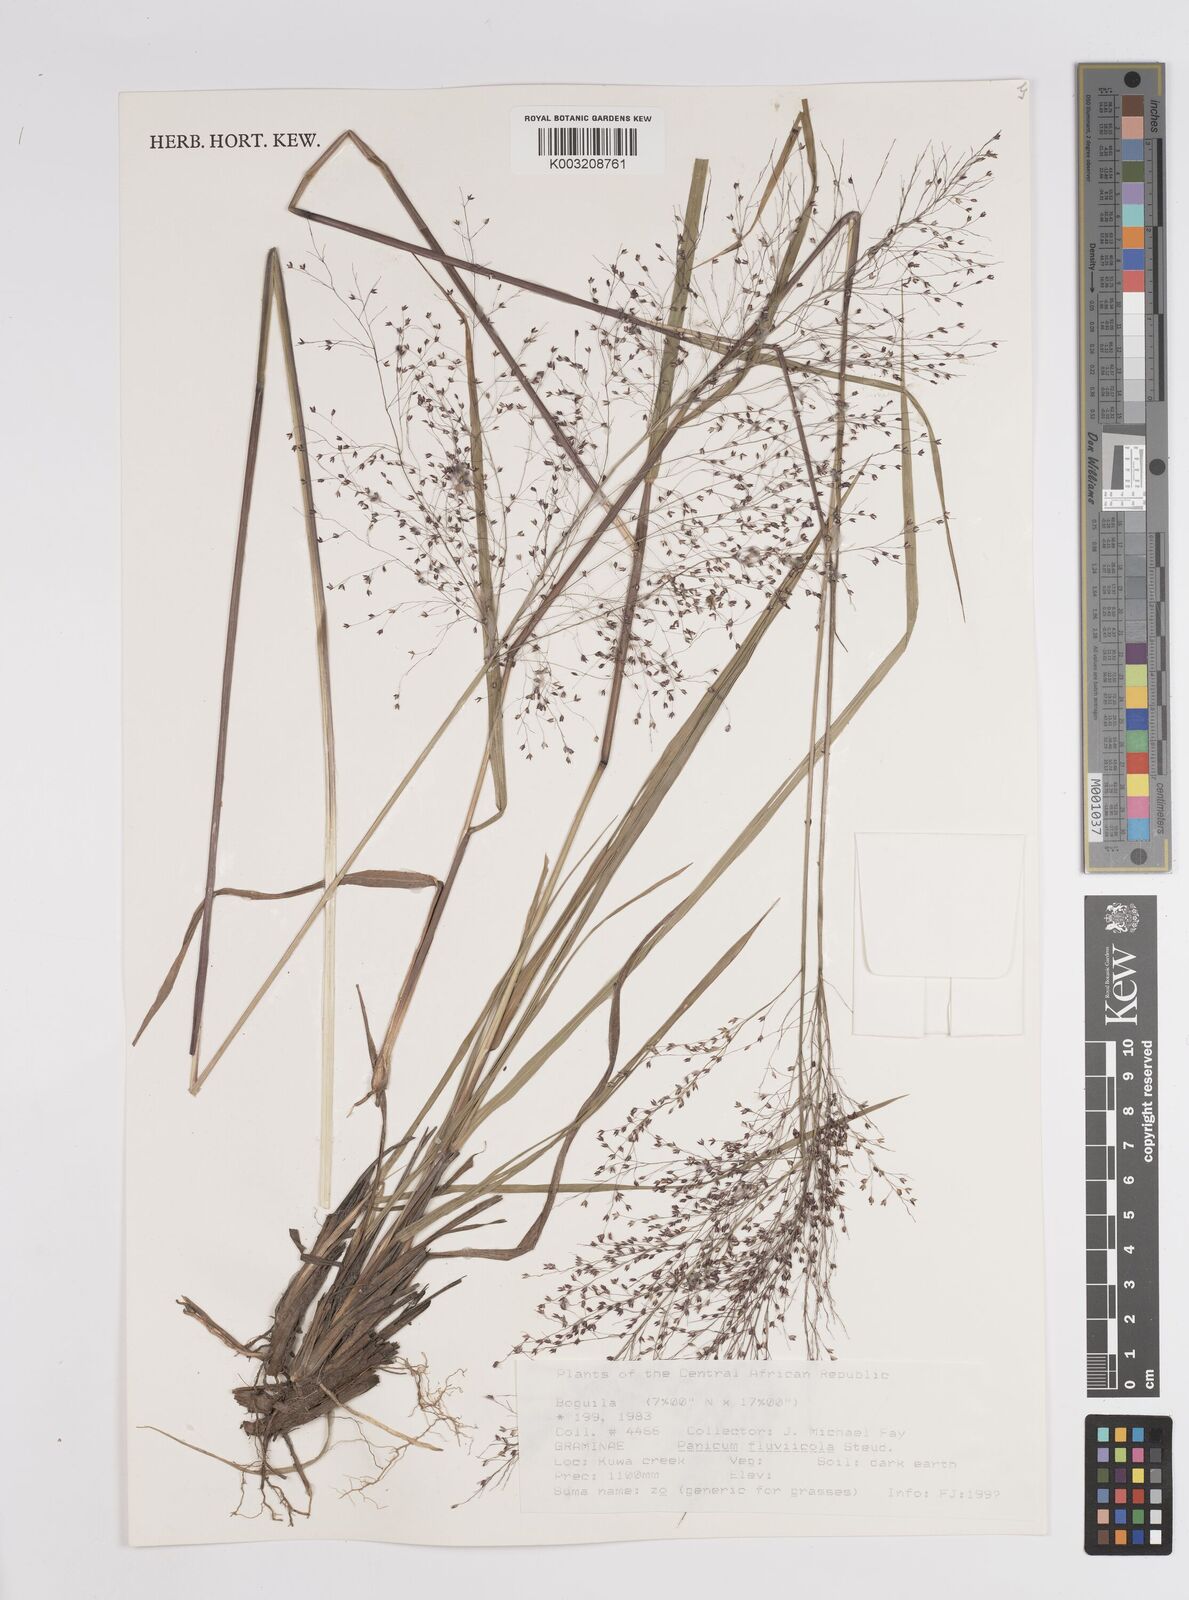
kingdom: Plantae
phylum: Tracheophyta
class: Liliopsida
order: Poales
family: Poaceae
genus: Panicum
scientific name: Panicum fluviicola
